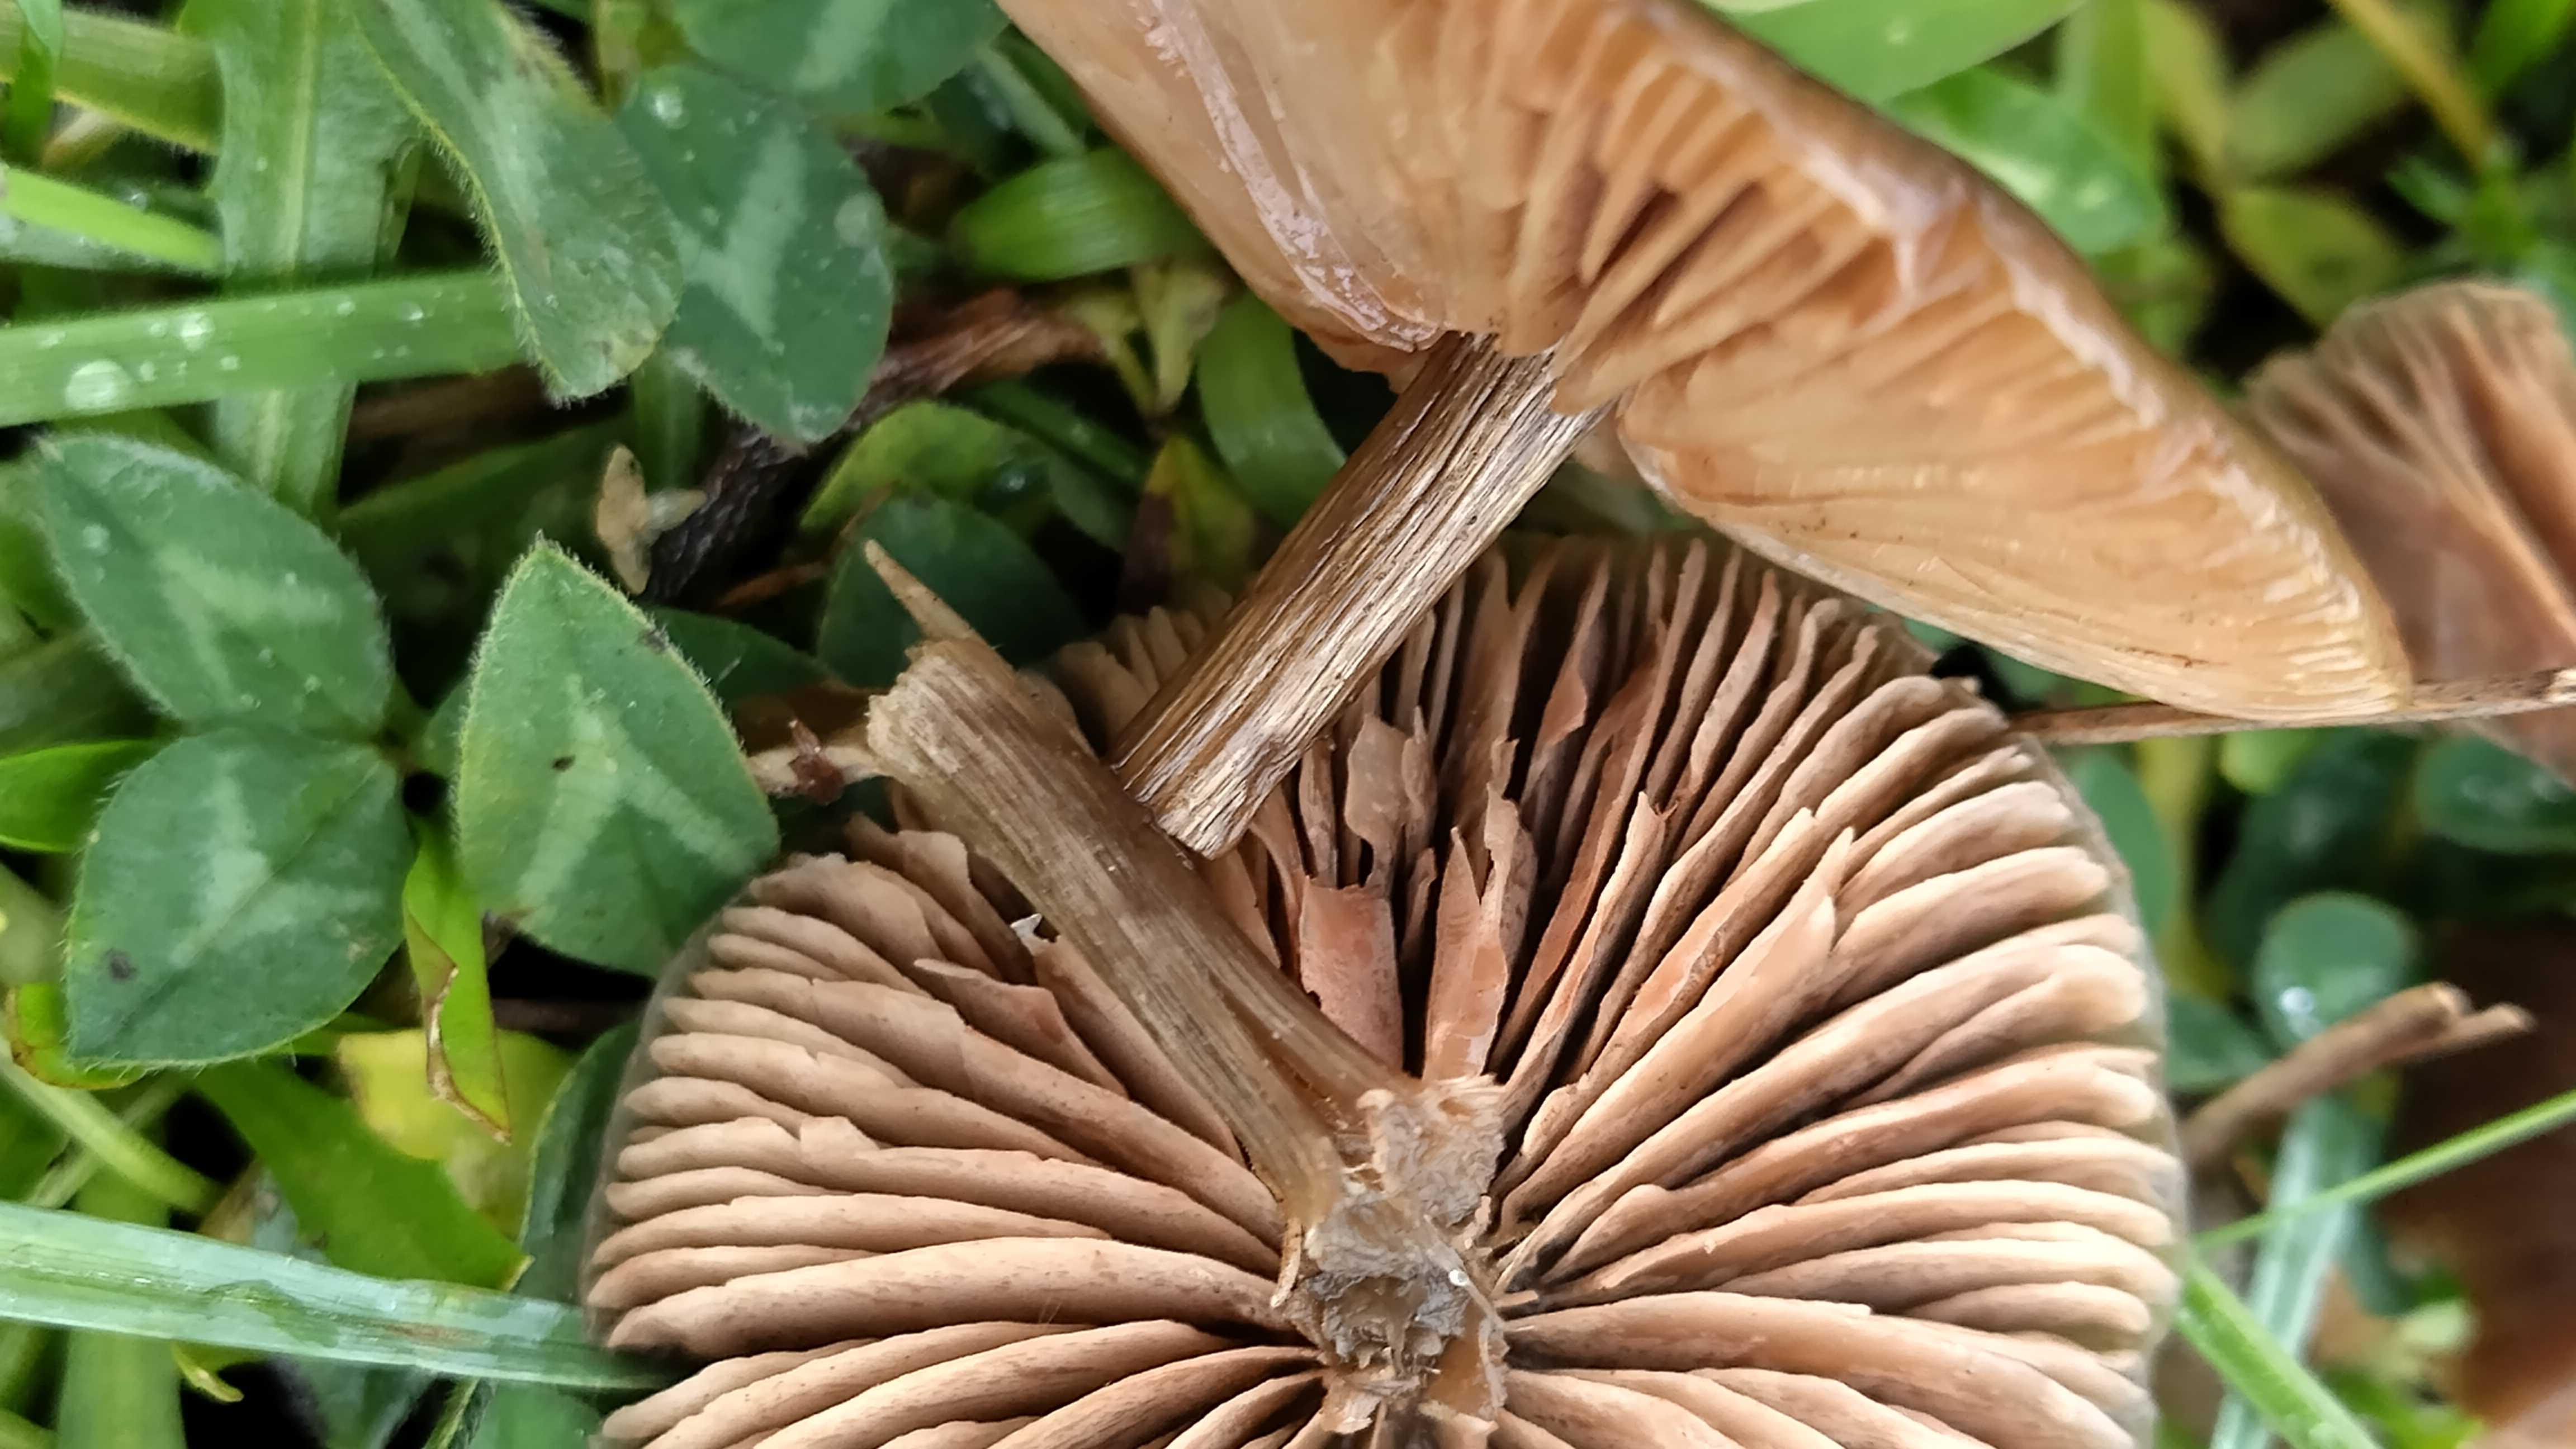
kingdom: Fungi
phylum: Basidiomycota
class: Agaricomycetes
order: Agaricales
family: Entolomataceae
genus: Entoloma
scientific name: Entoloma sericeum
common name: silkeglinsende rødblad
